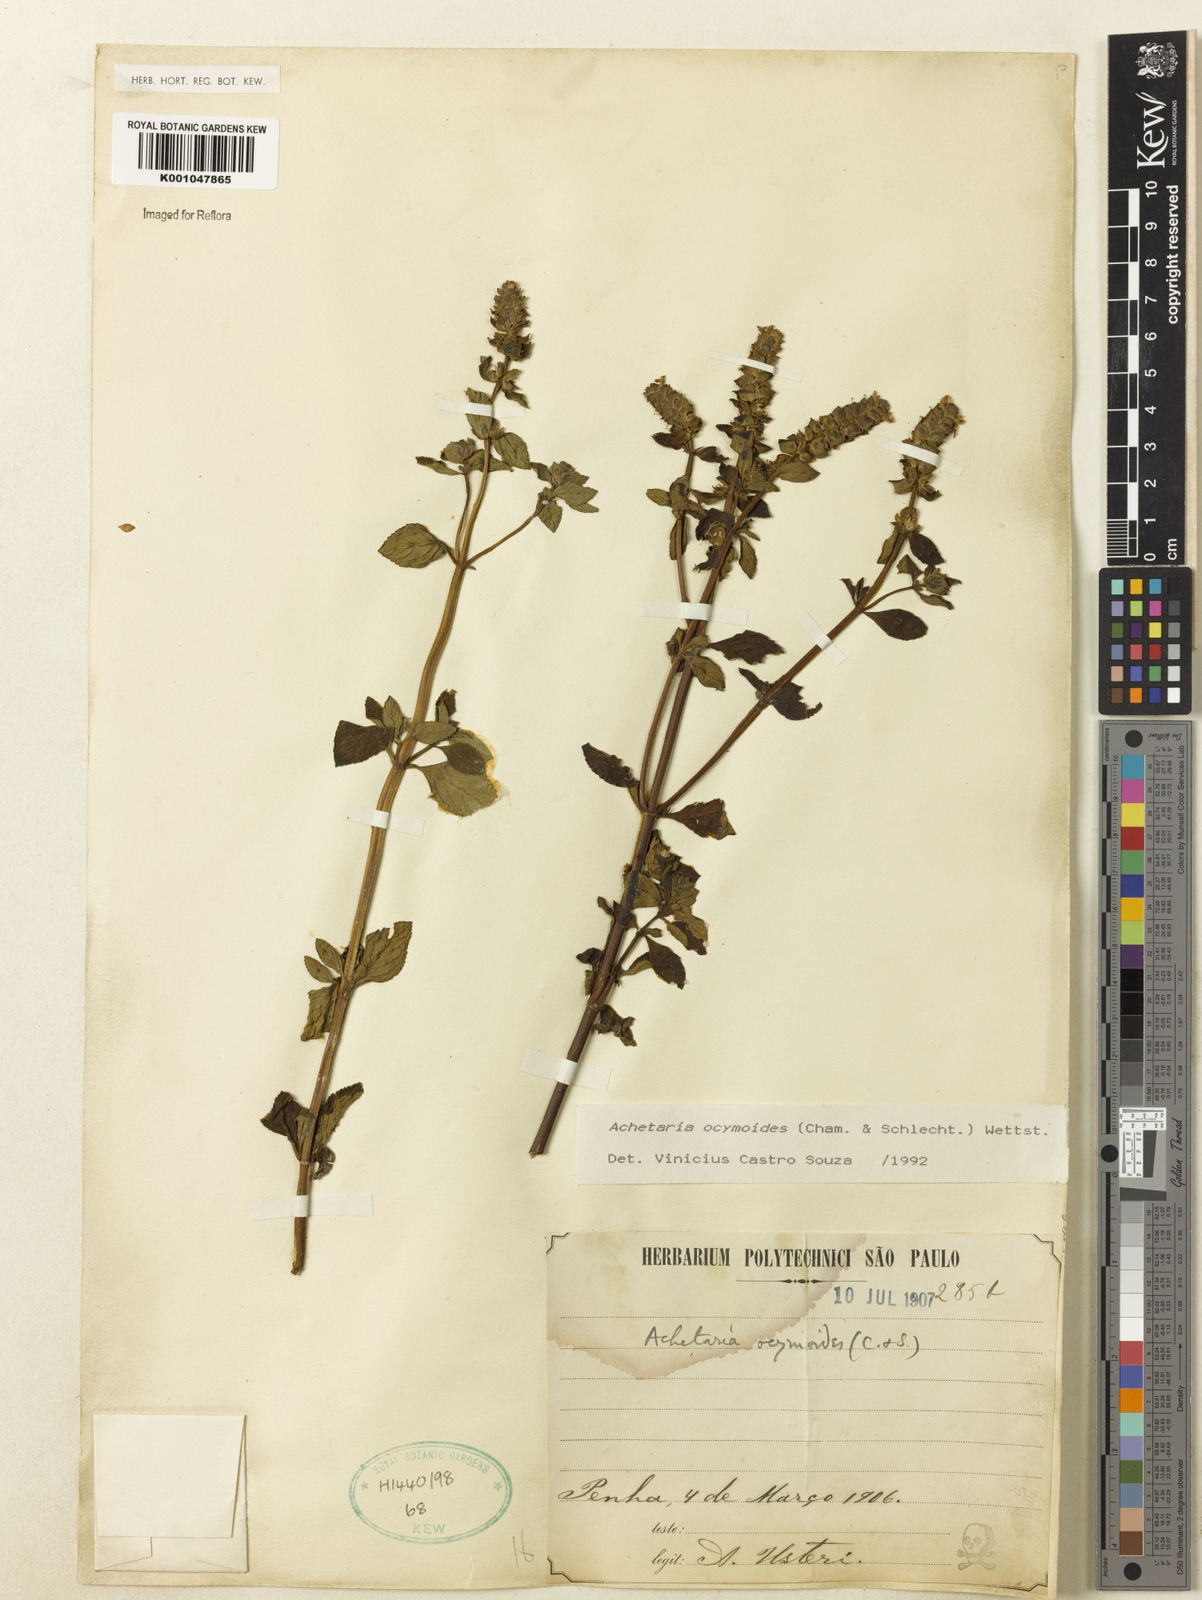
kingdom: Plantae
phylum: Tracheophyta
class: Magnoliopsida
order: Lamiales
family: Plantaginaceae
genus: Matourea
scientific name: Matourea ocymoides
